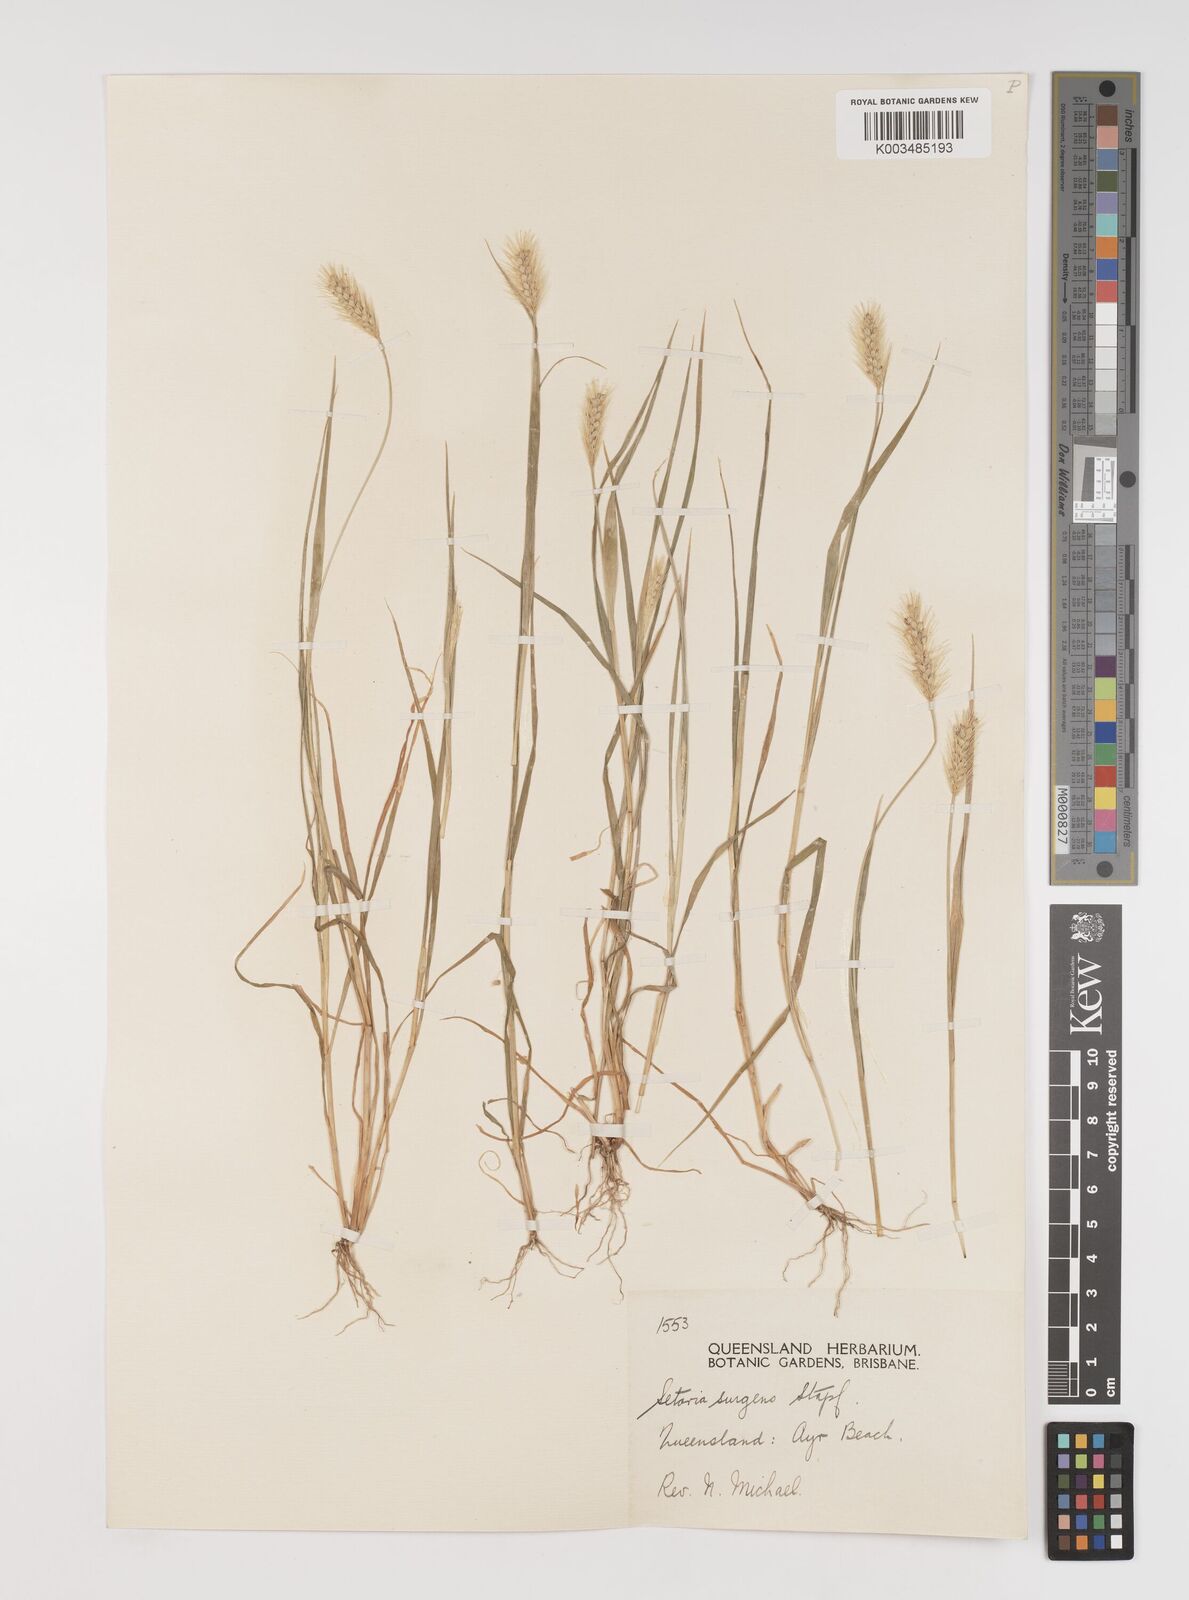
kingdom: Plantae
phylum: Tracheophyta
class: Liliopsida
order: Poales
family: Poaceae
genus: Setaria
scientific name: Setaria apiculata
